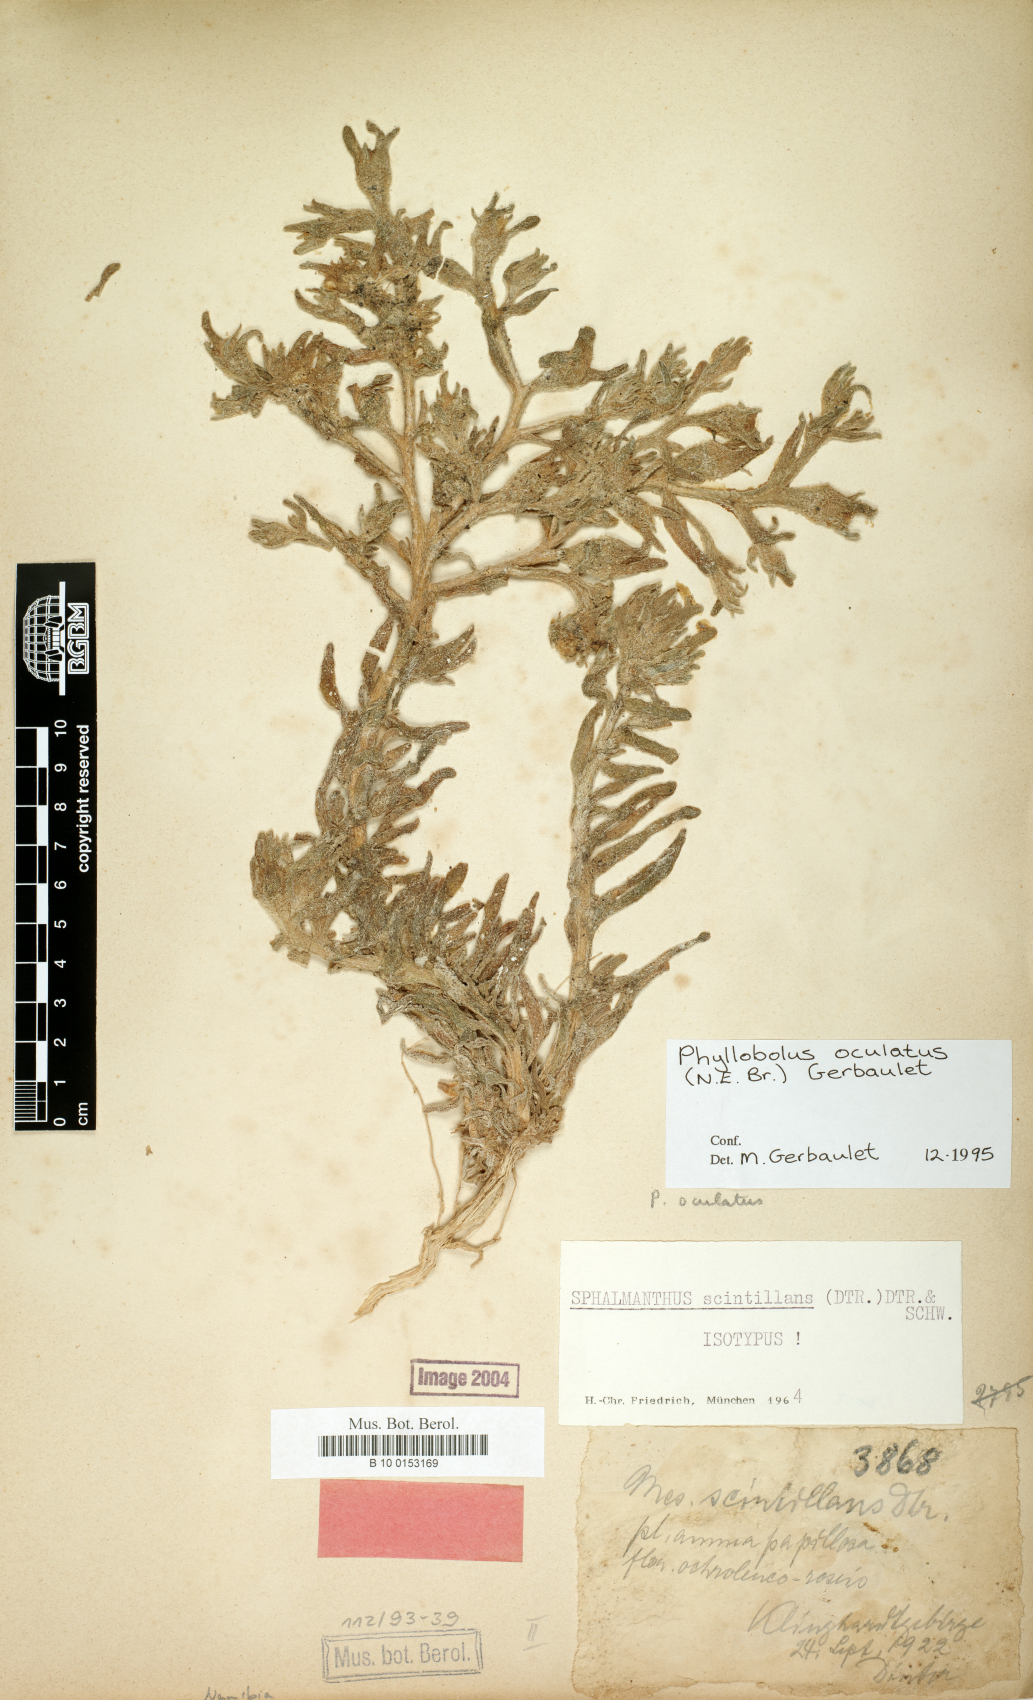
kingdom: Plantae
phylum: Tracheophyta
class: Magnoliopsida
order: Caryophyllales
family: Aizoaceae
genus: Mesembryanthemum
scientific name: Mesembryanthemum oculatum
